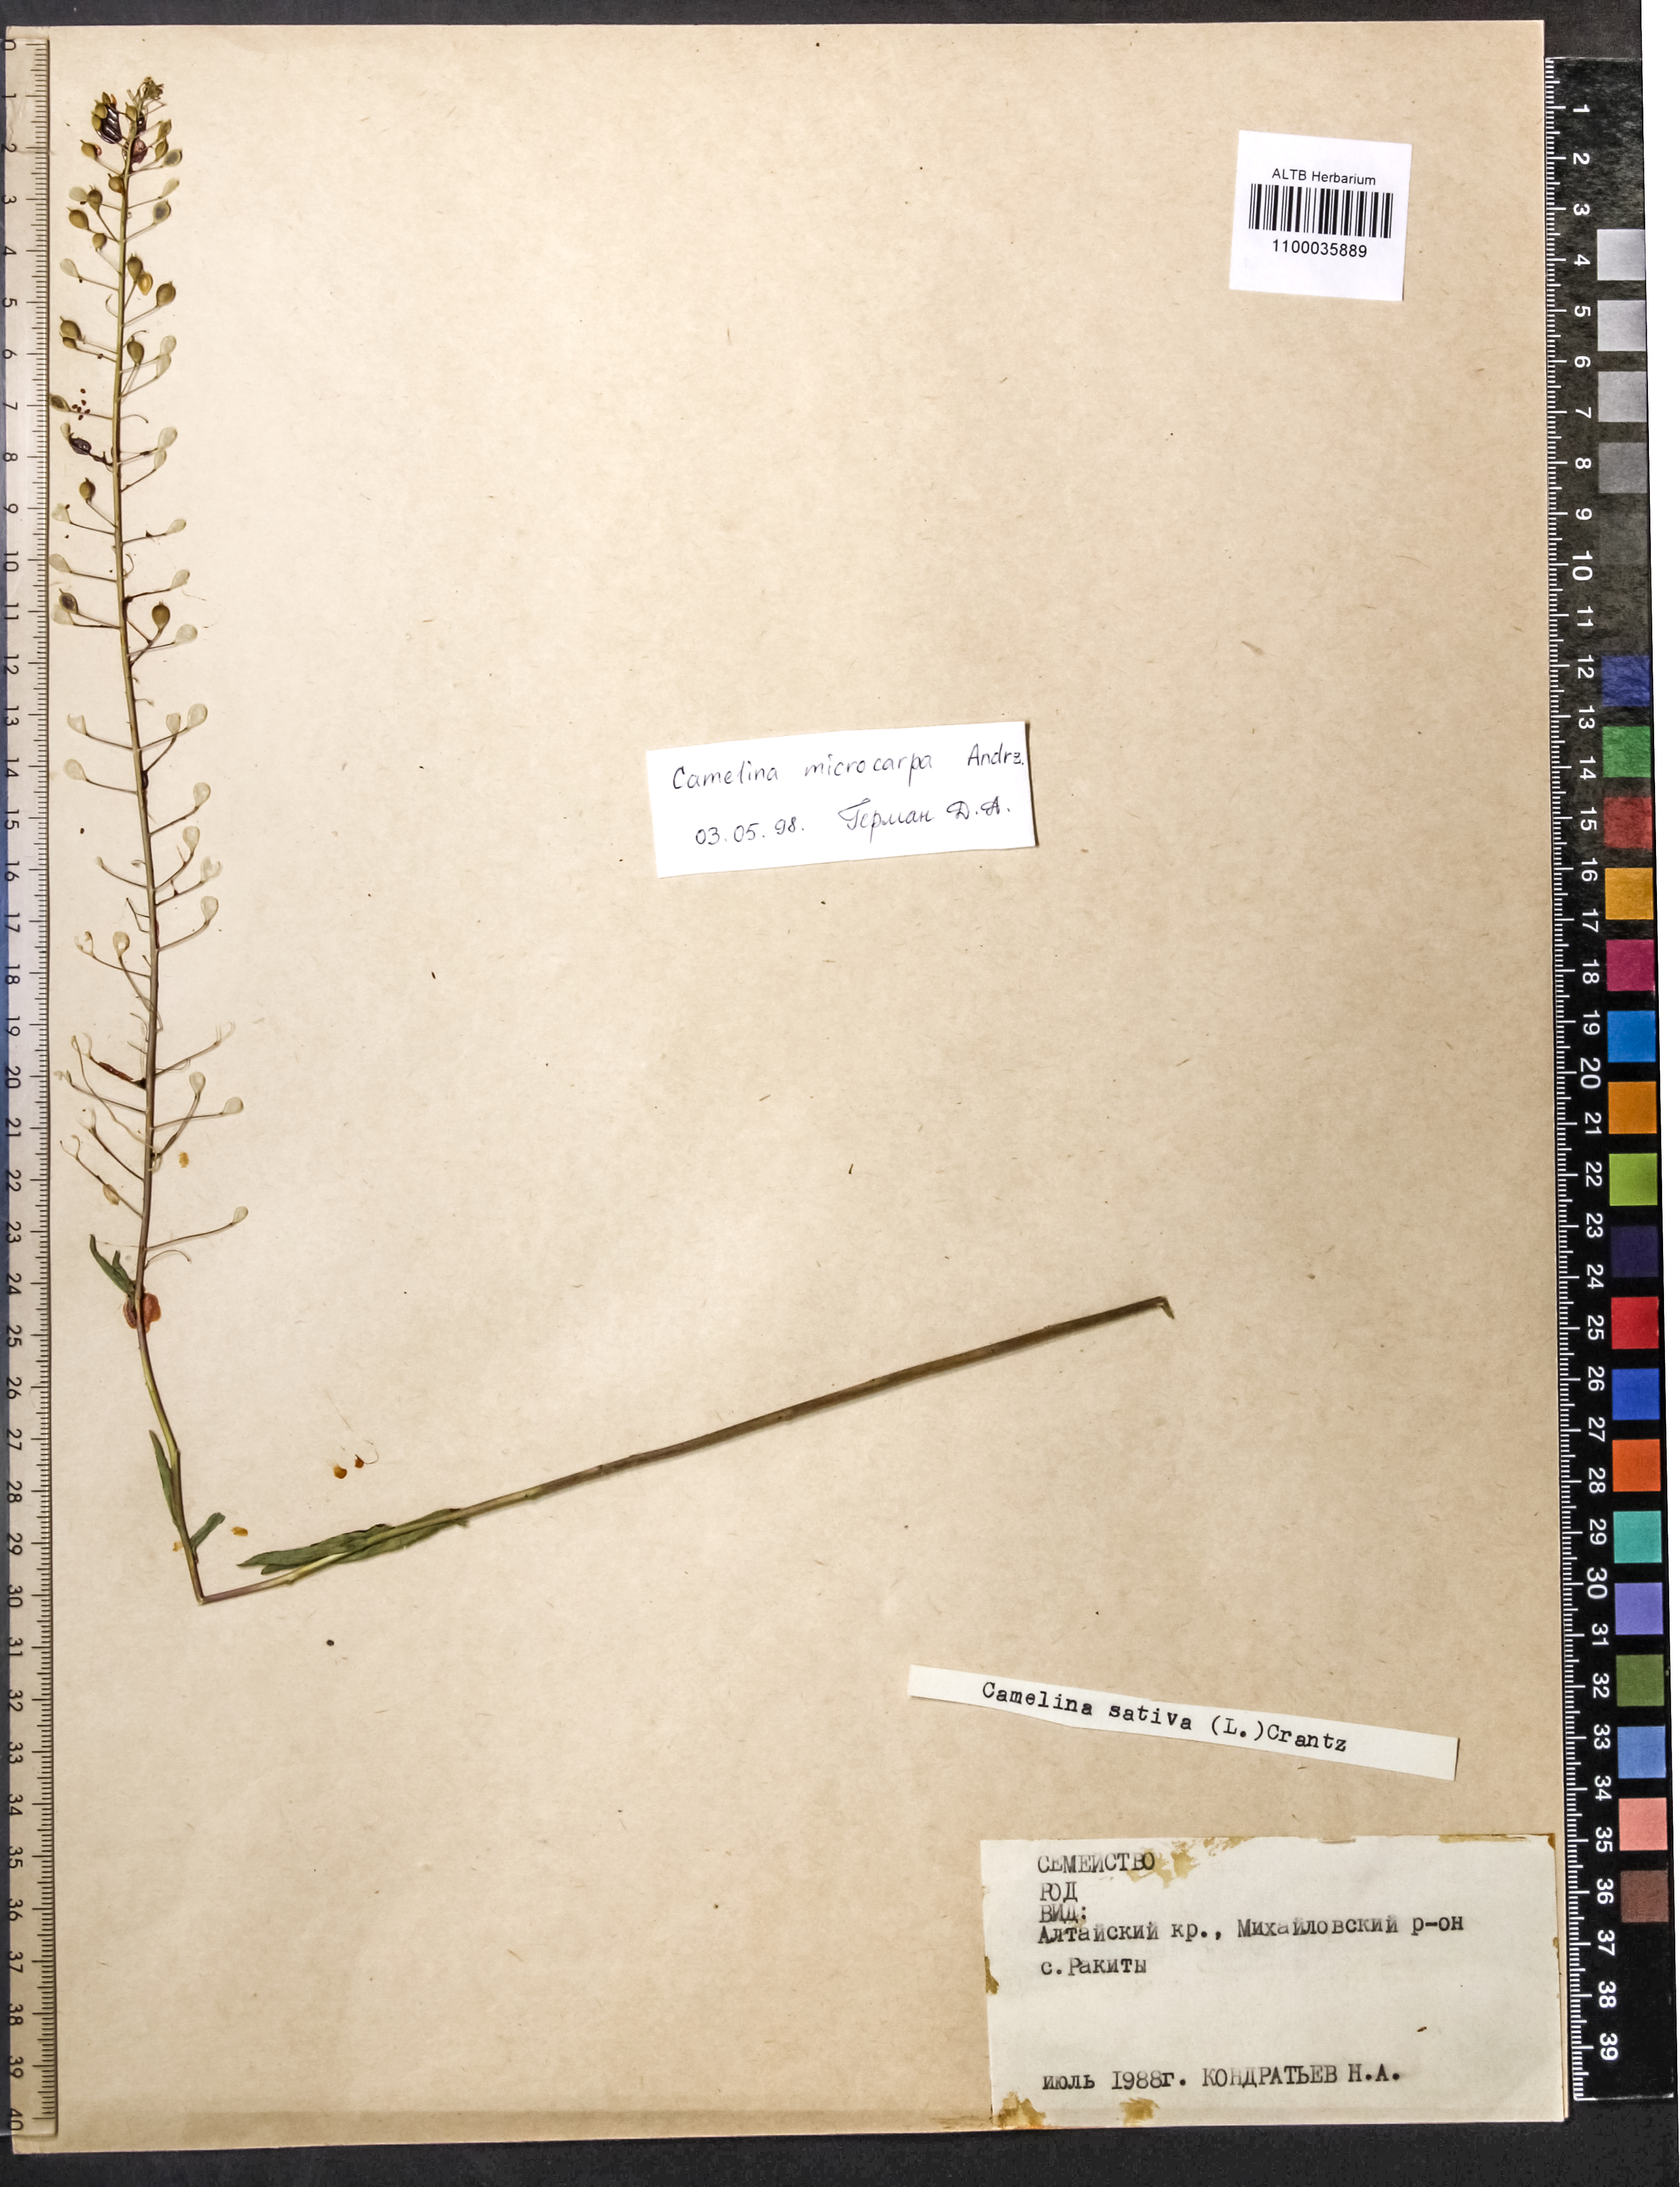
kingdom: Plantae
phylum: Tracheophyta
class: Magnoliopsida
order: Brassicales
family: Brassicaceae
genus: Camelina
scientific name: Camelina microcarpa
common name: Lesser gold-of-pleasure
